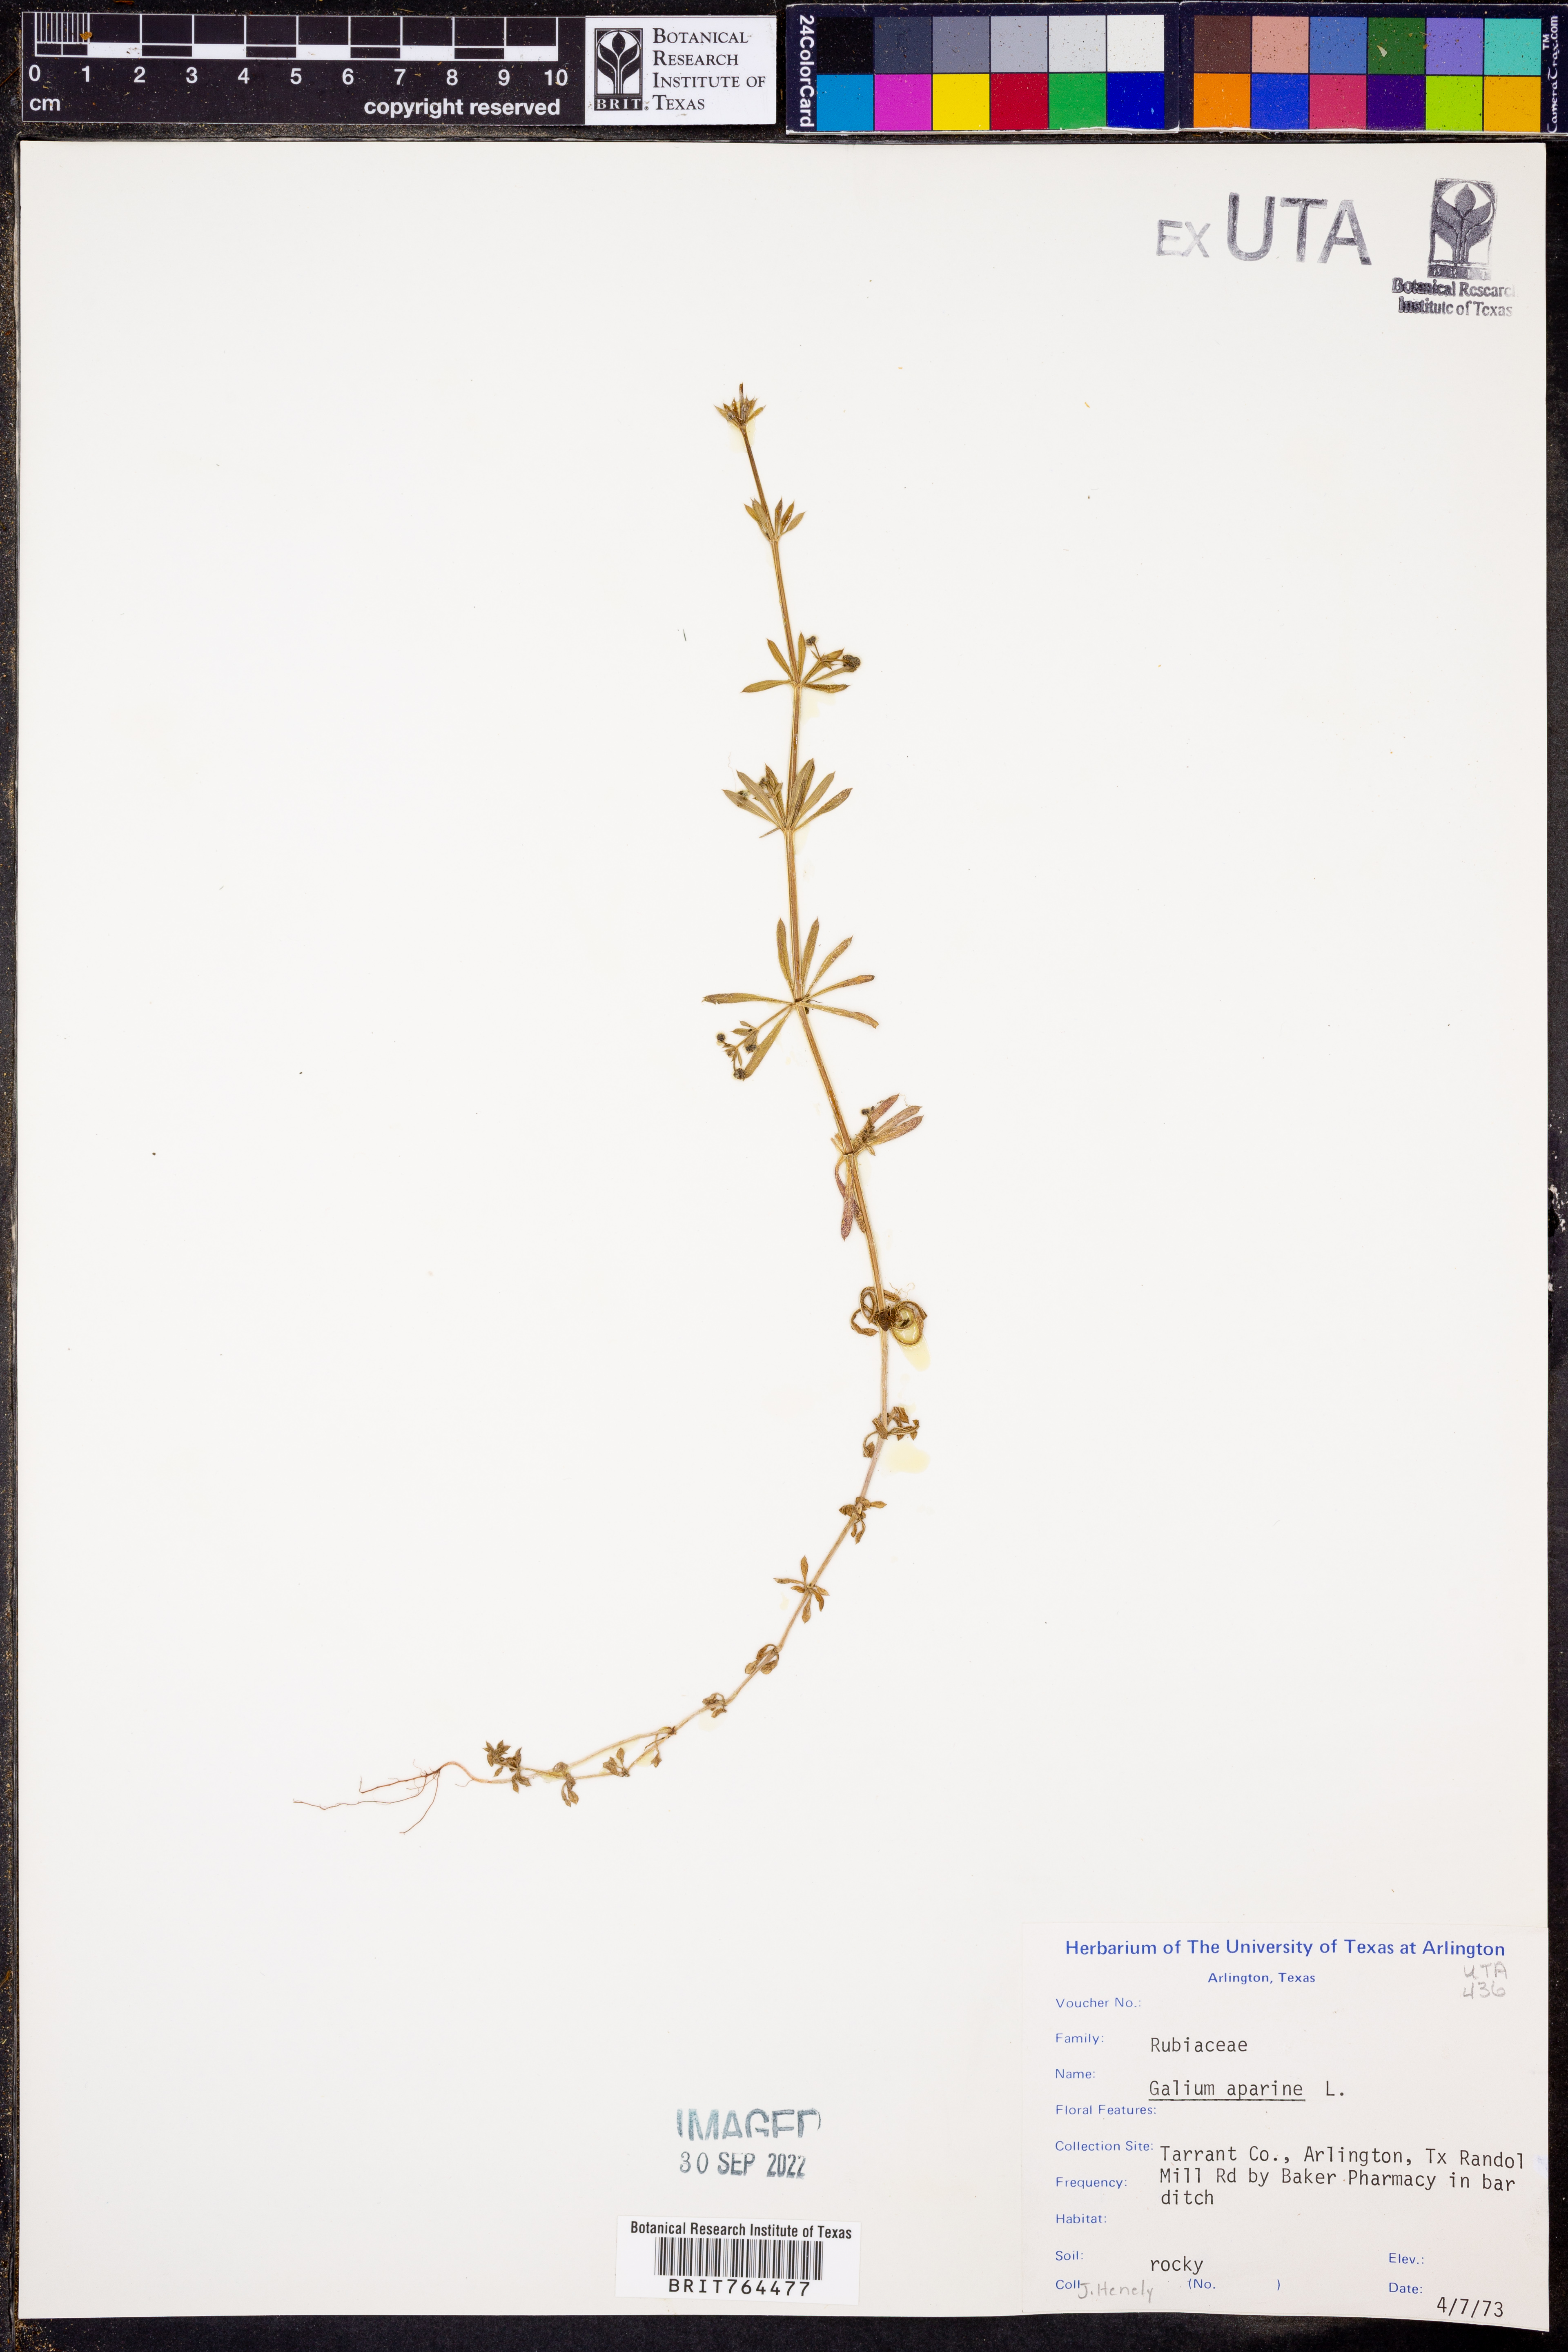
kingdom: Plantae
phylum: Tracheophyta
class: Magnoliopsida
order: Gentianales
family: Rubiaceae
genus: Galium
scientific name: Galium aparine
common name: Cleavers
